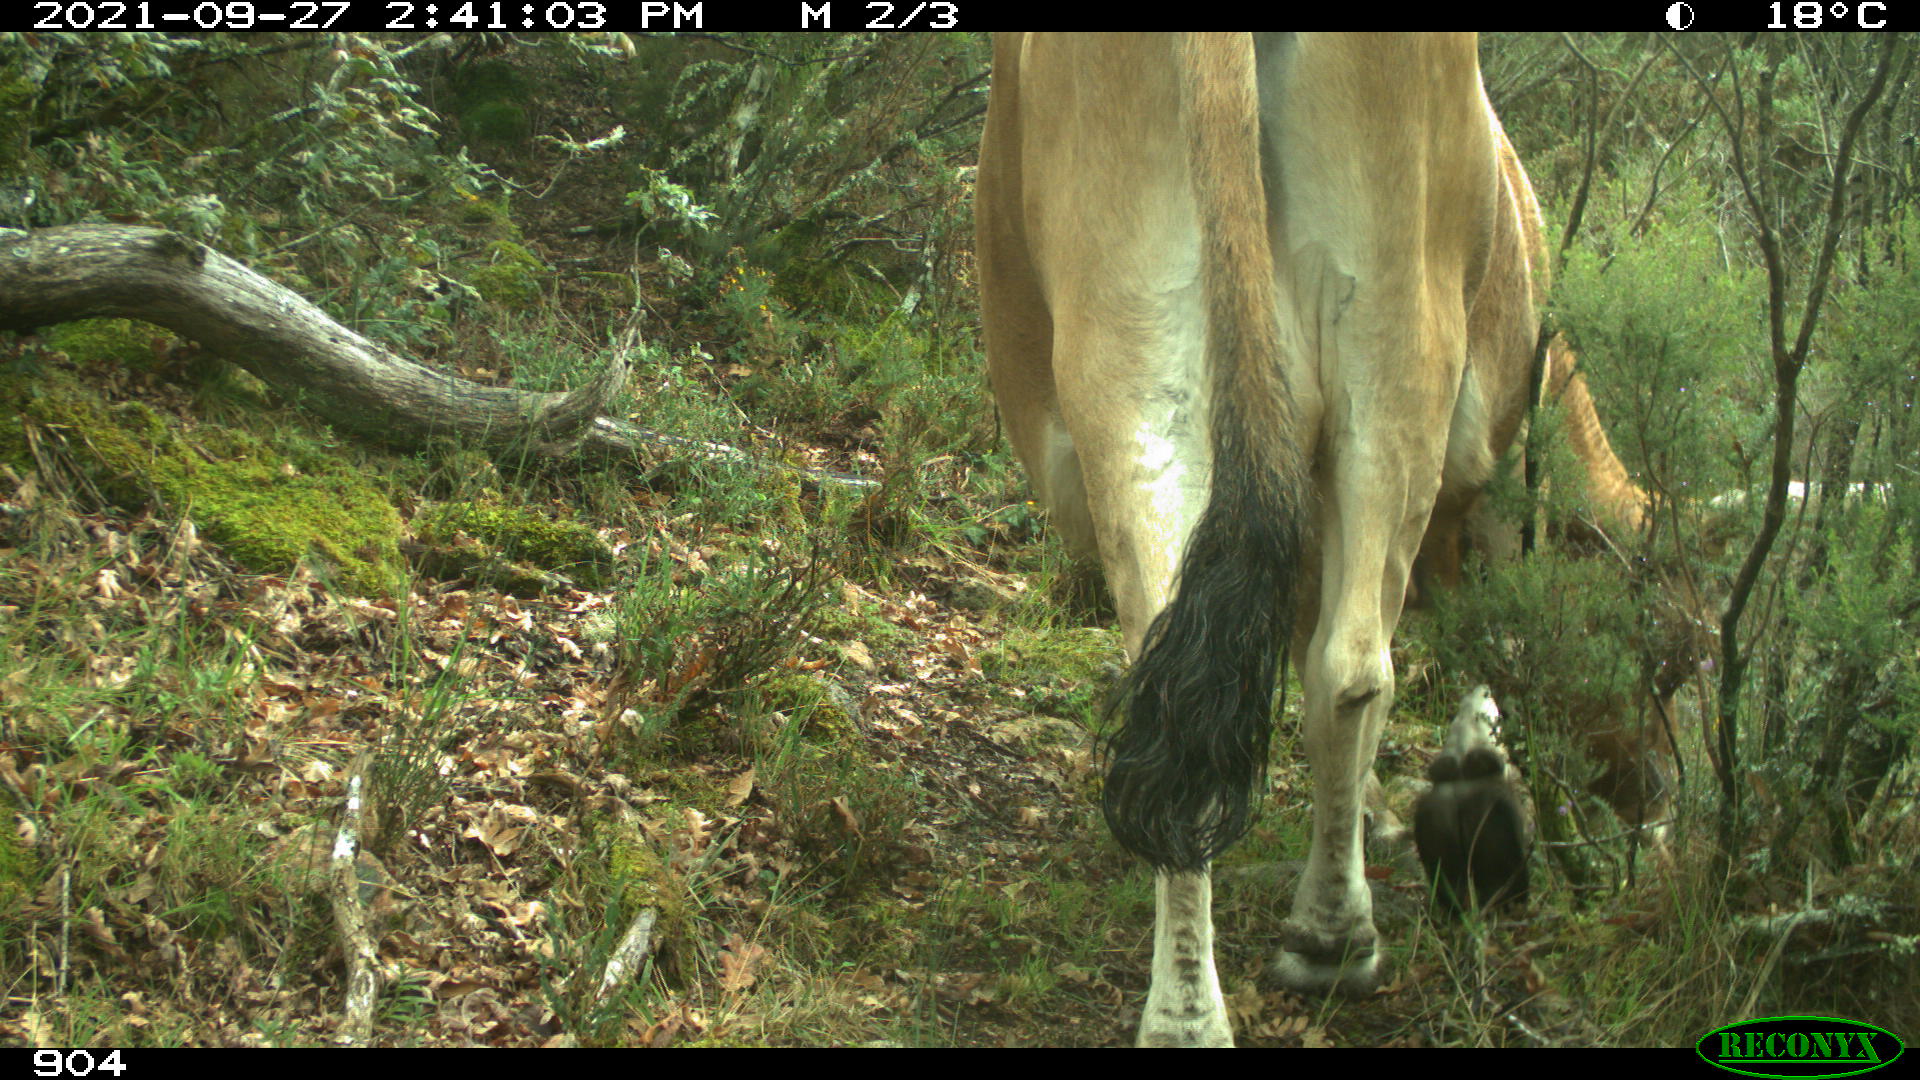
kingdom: Animalia
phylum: Chordata
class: Mammalia
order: Artiodactyla
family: Bovidae
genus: Bos
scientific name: Bos taurus
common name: Domesticated cattle
